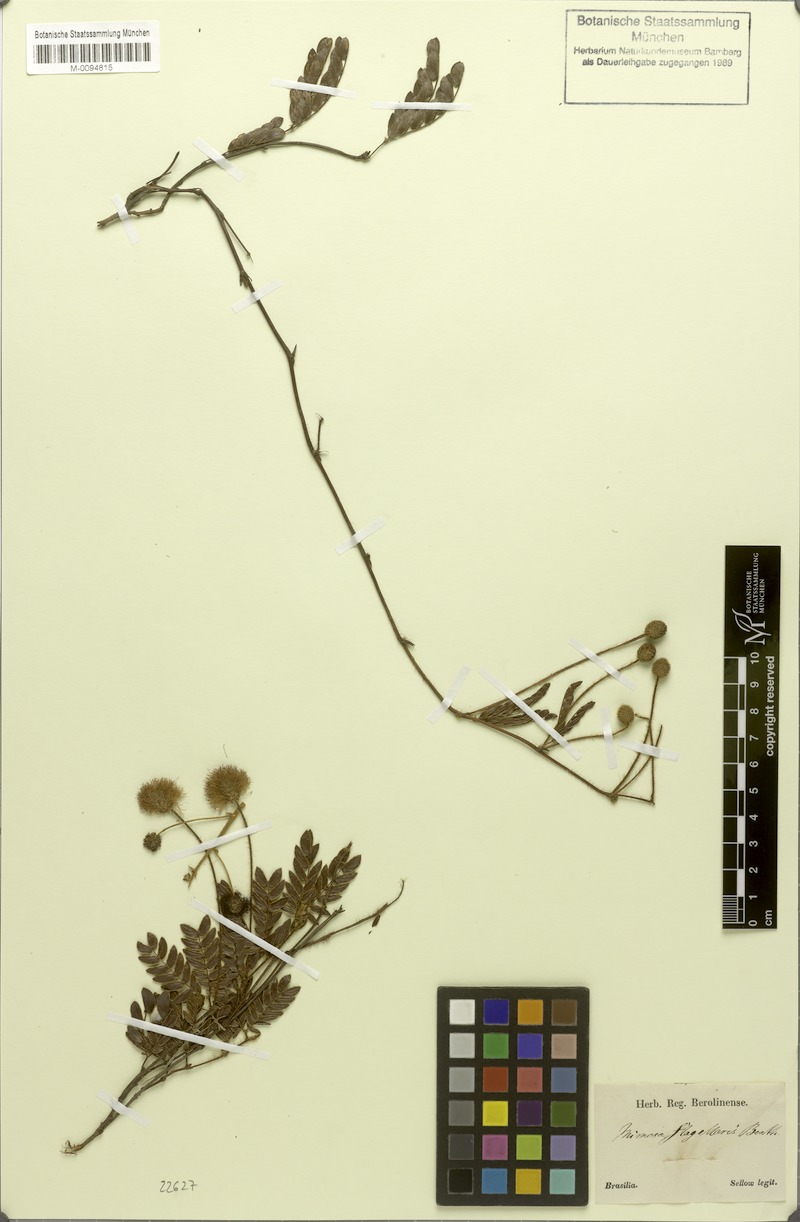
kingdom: Plantae
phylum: Tracheophyta
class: Magnoliopsida
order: Fabales
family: Fabaceae
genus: Mimosa
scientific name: Mimosa flagellaris
